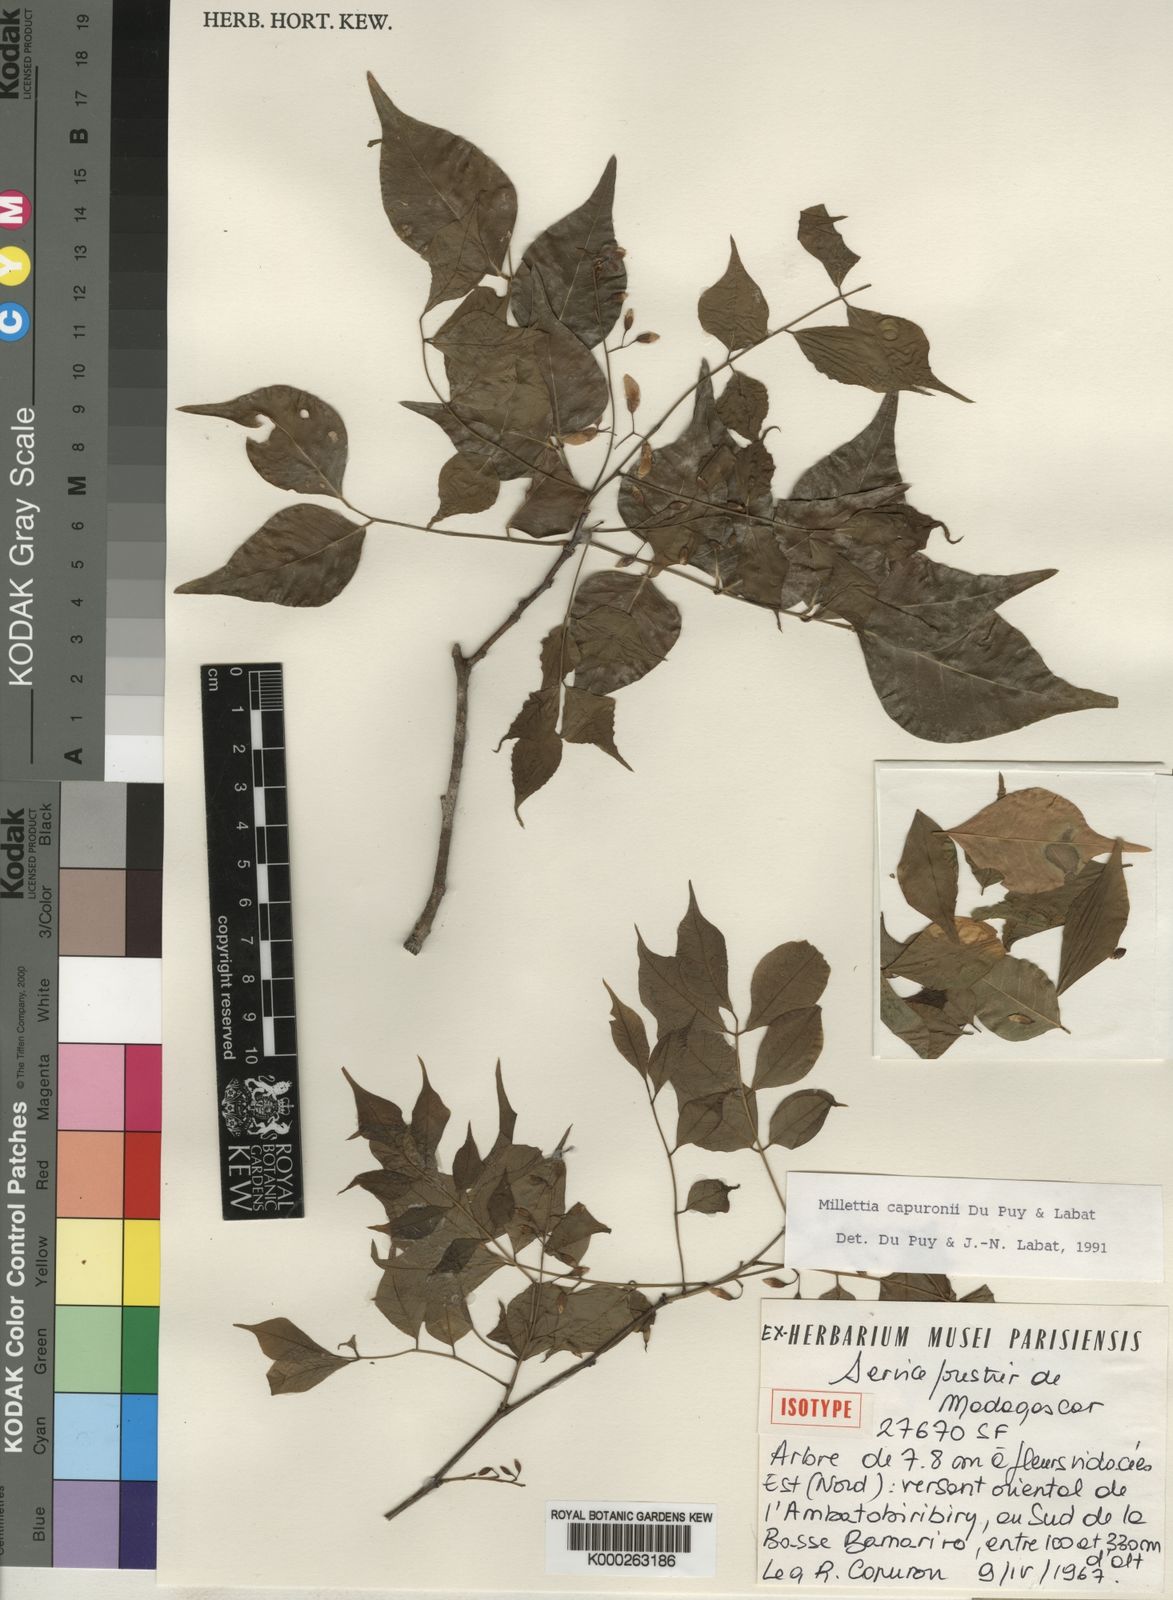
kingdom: Plantae
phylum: Tracheophyta
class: Magnoliopsida
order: Fabales
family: Fabaceae
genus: Millettia
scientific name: Millettia capuronii
